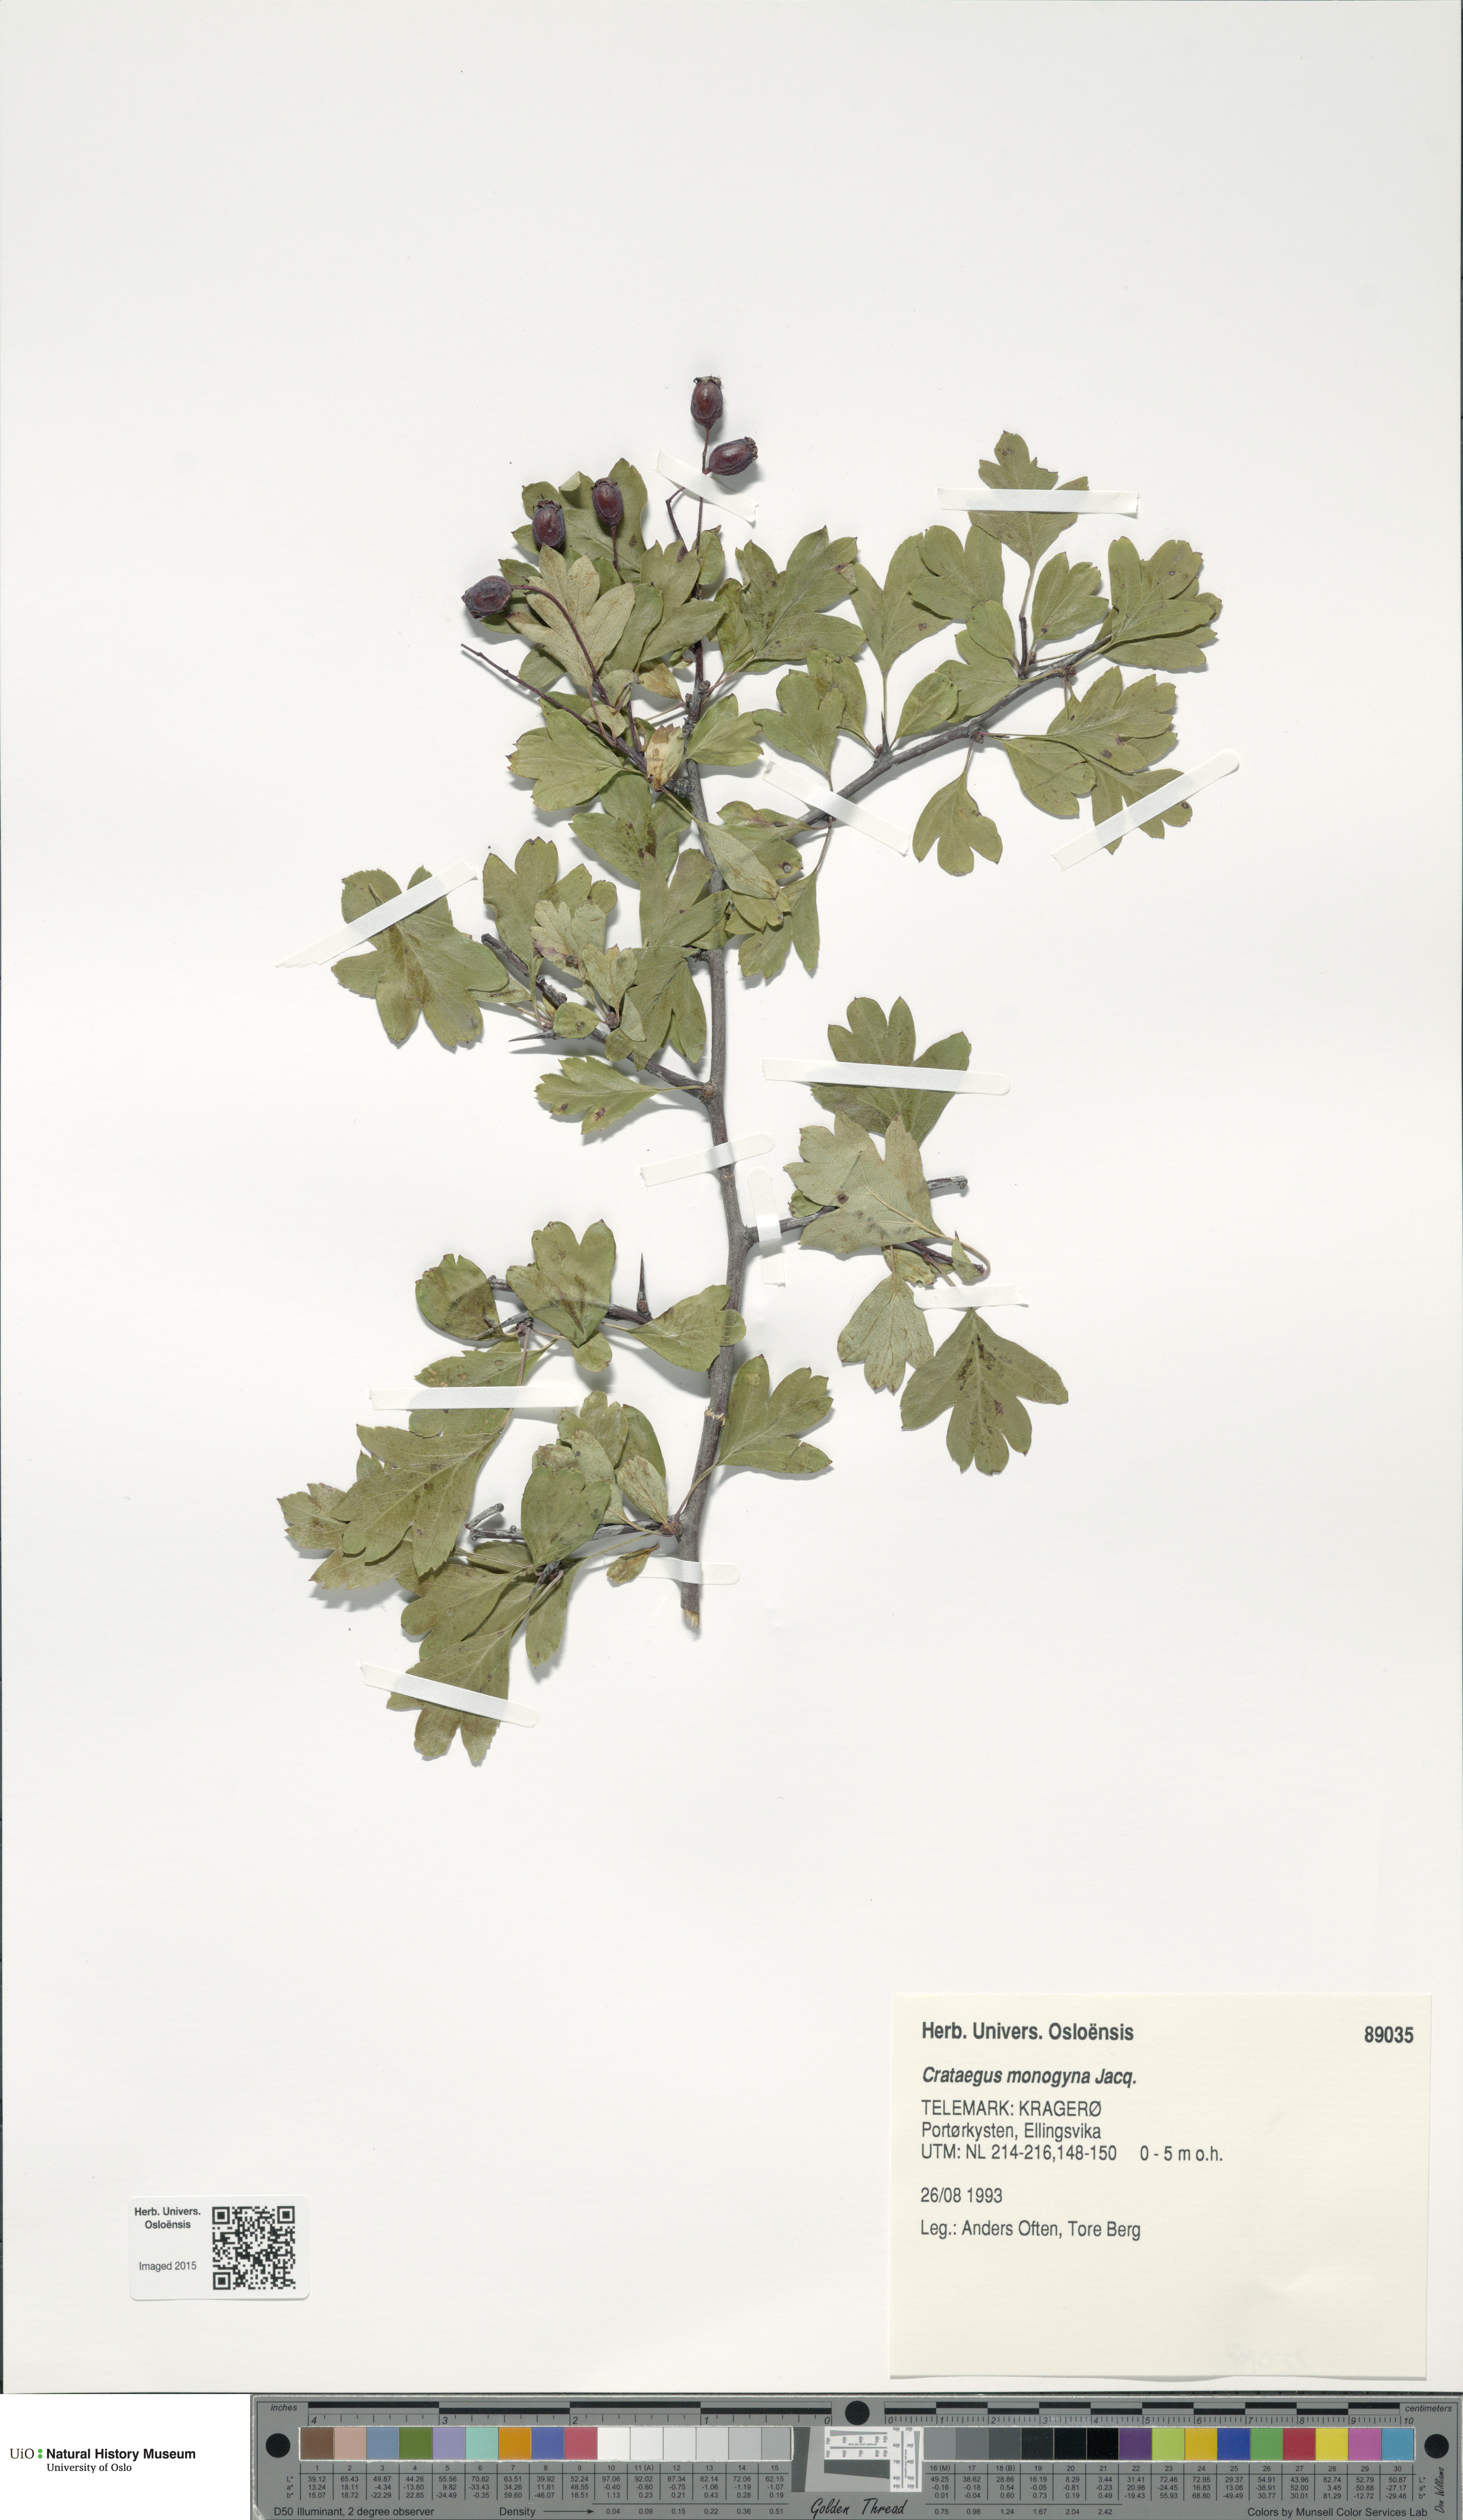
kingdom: Plantae
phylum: Tracheophyta
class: Magnoliopsida
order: Rosales
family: Rosaceae
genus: Crataegus
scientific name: Crataegus monogyna
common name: Hawthorn
